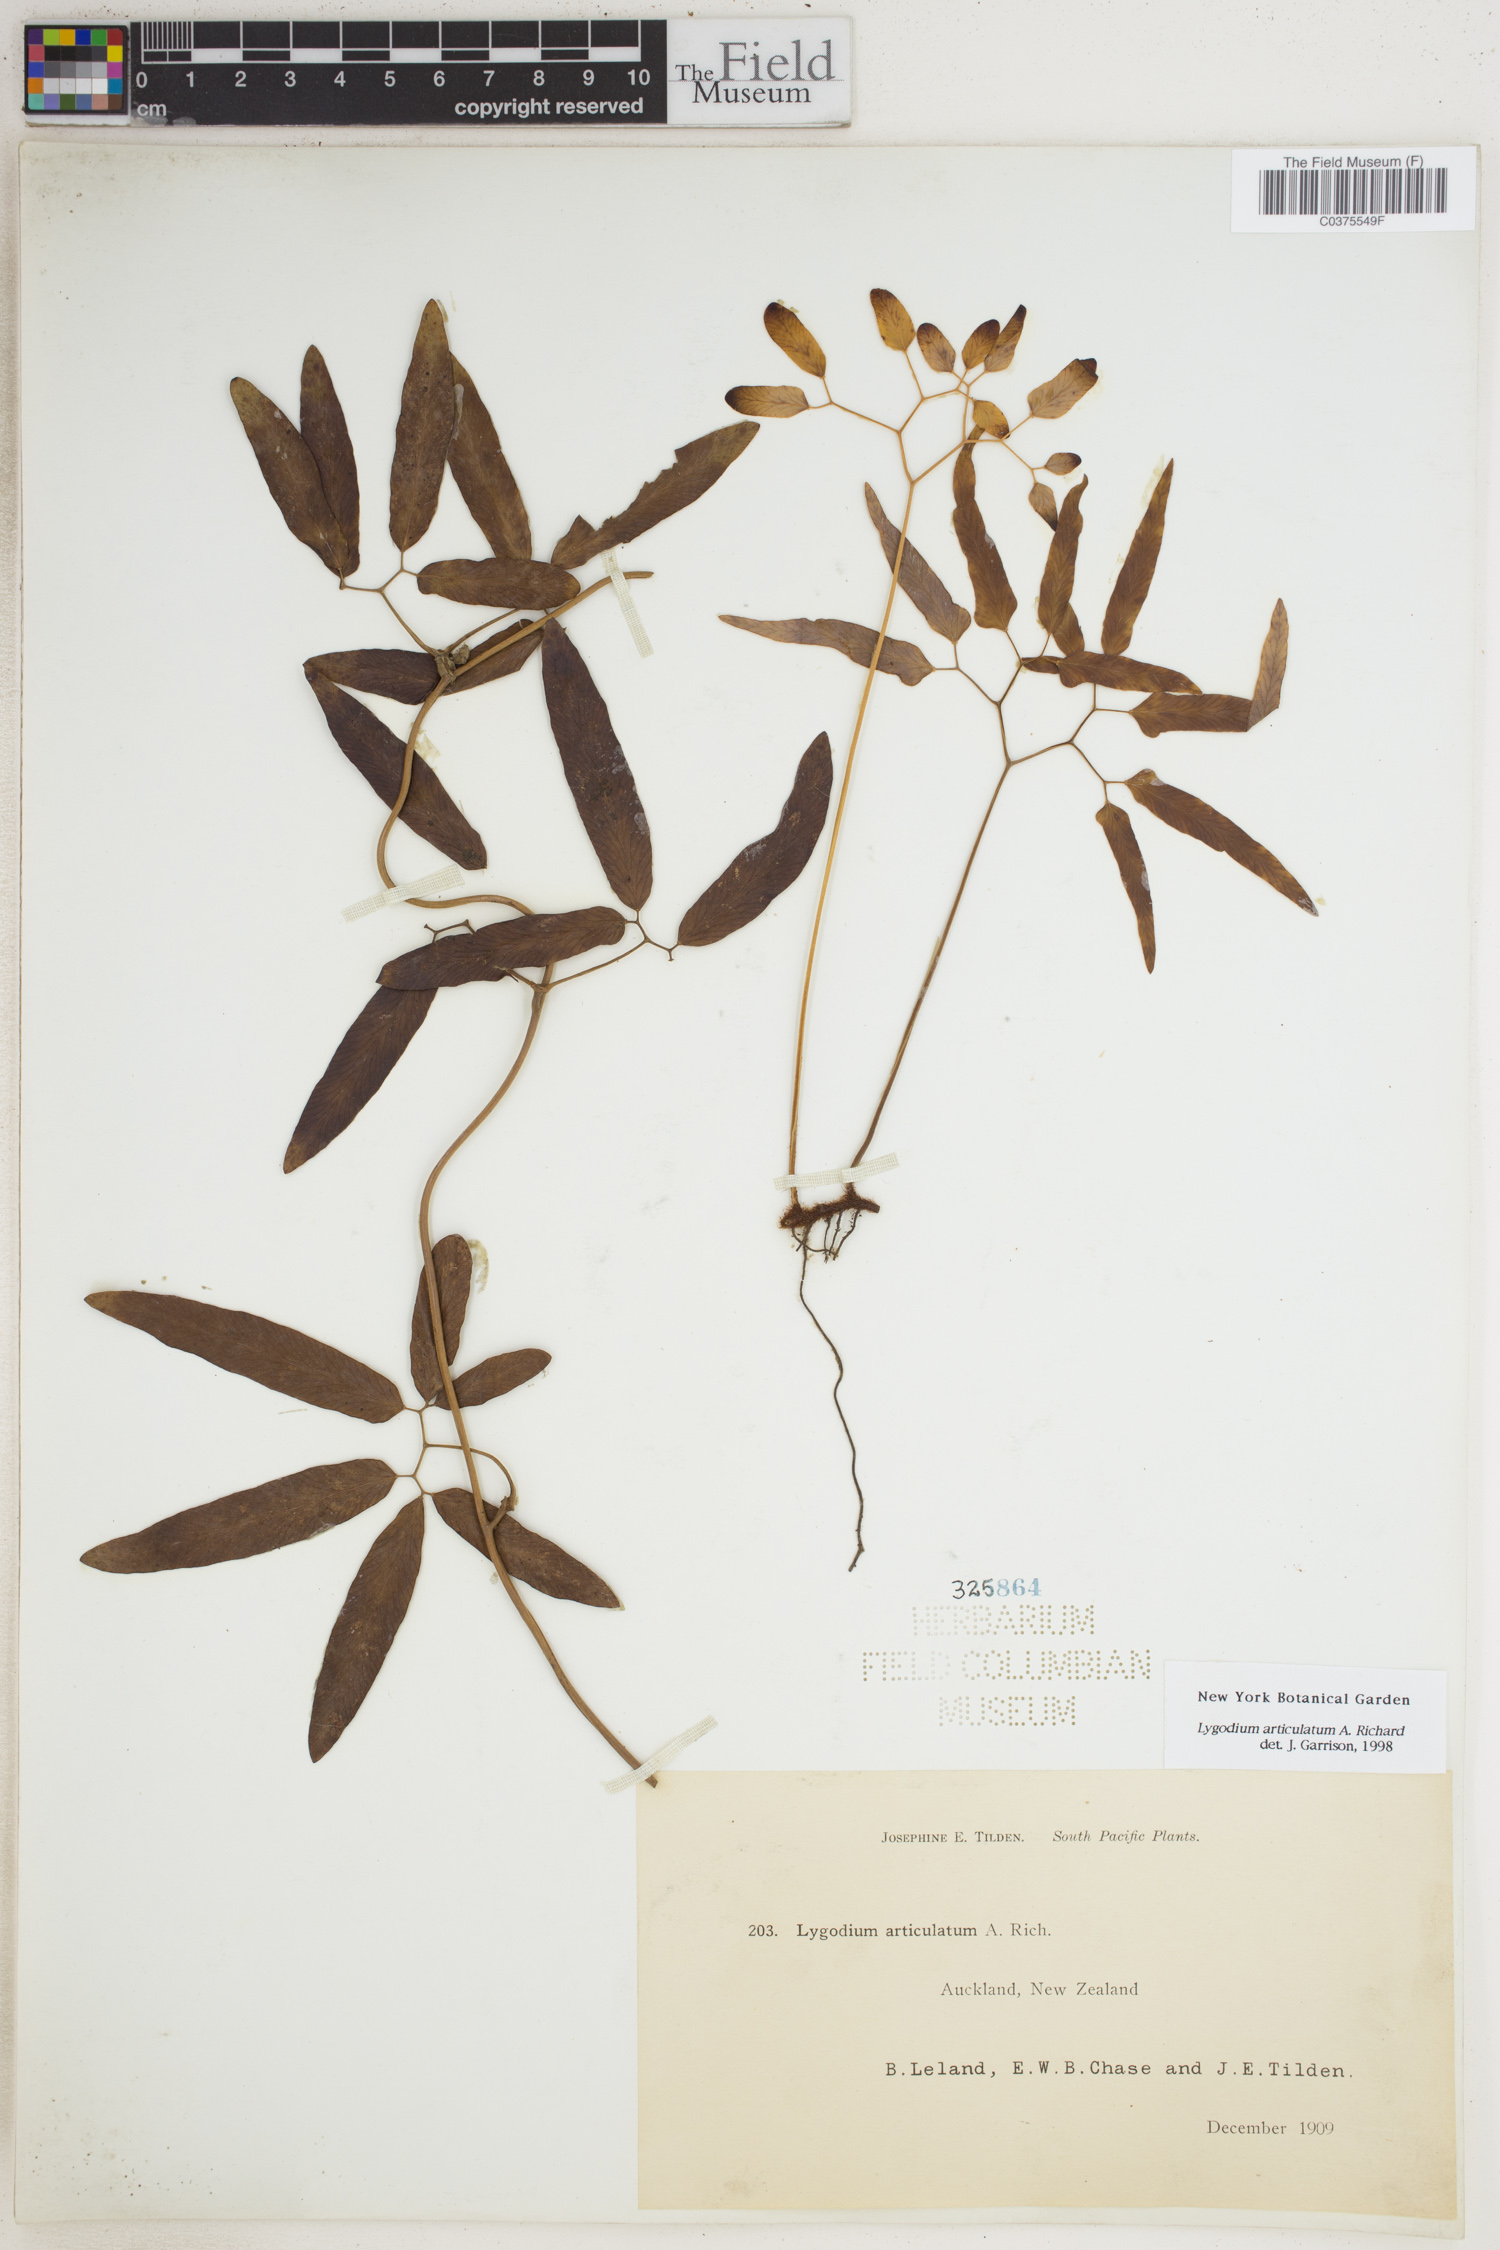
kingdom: Plantae
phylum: Tracheophyta
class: Polypodiopsida
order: Schizaeales
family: Lygodiaceae
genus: Lygodium
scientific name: Lygodium articulatum
